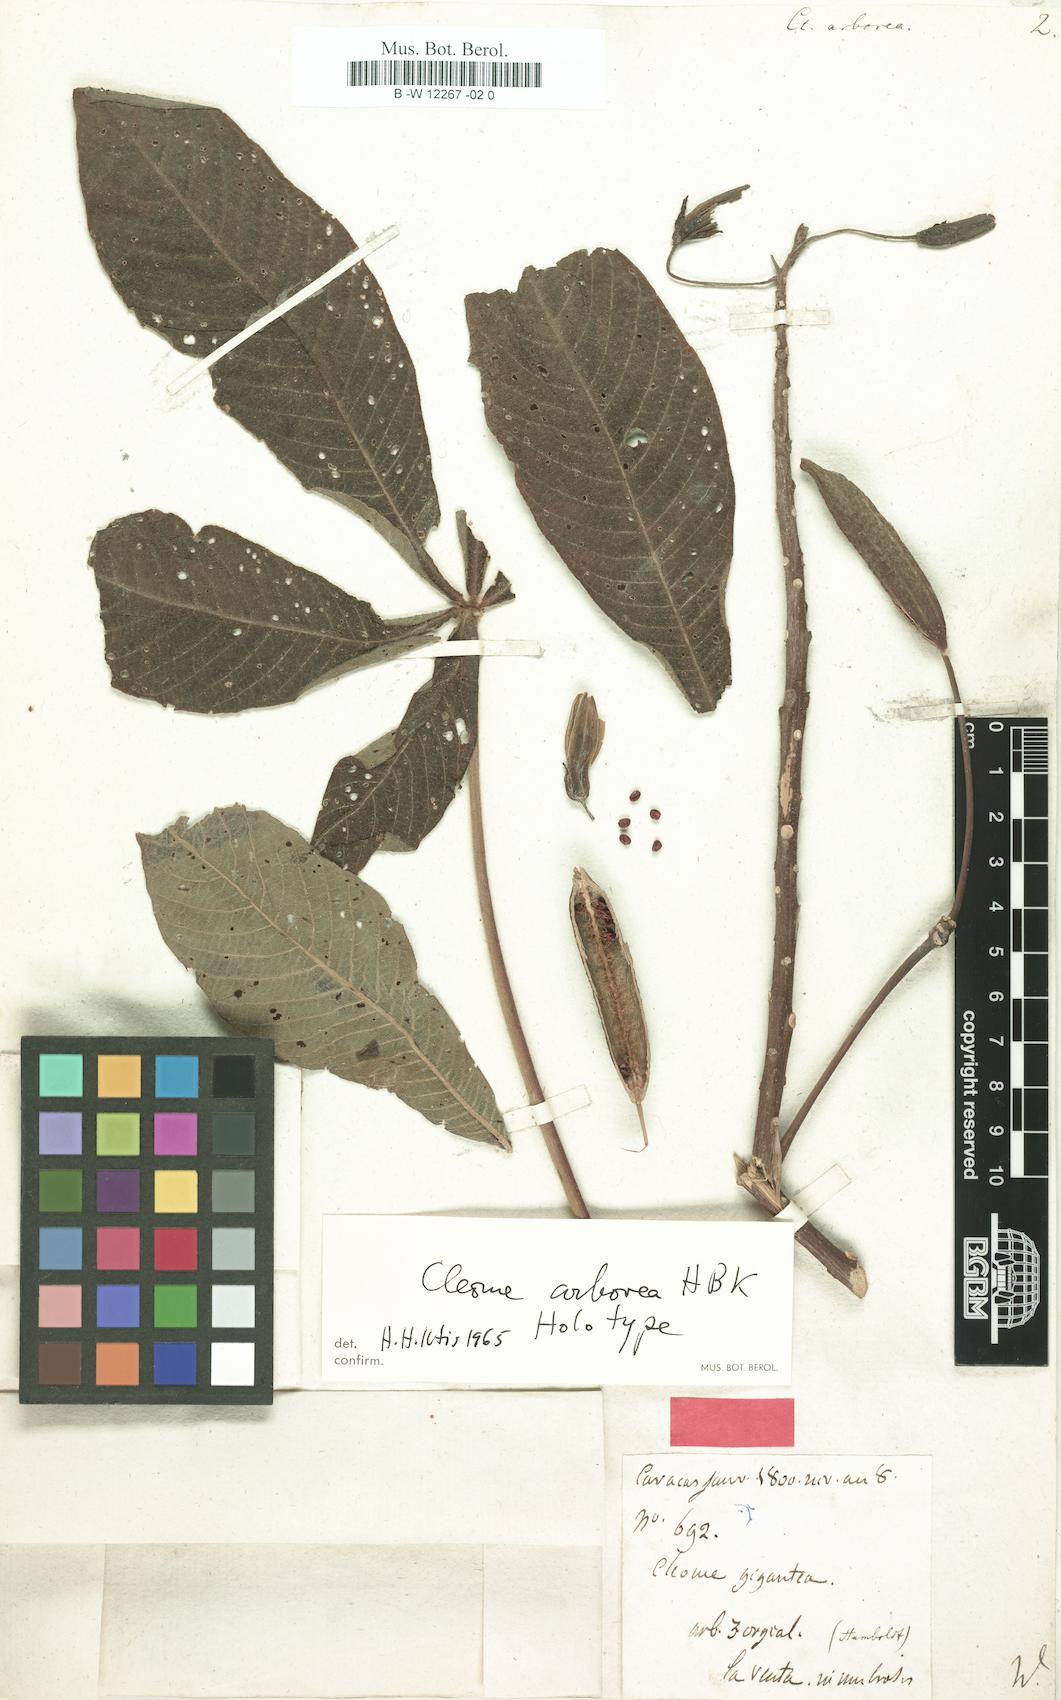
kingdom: Plantae
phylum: Tracheophyta
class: Magnoliopsida
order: Brassicales
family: Cleomaceae
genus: Melidiscus
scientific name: Melidiscus gigantea
